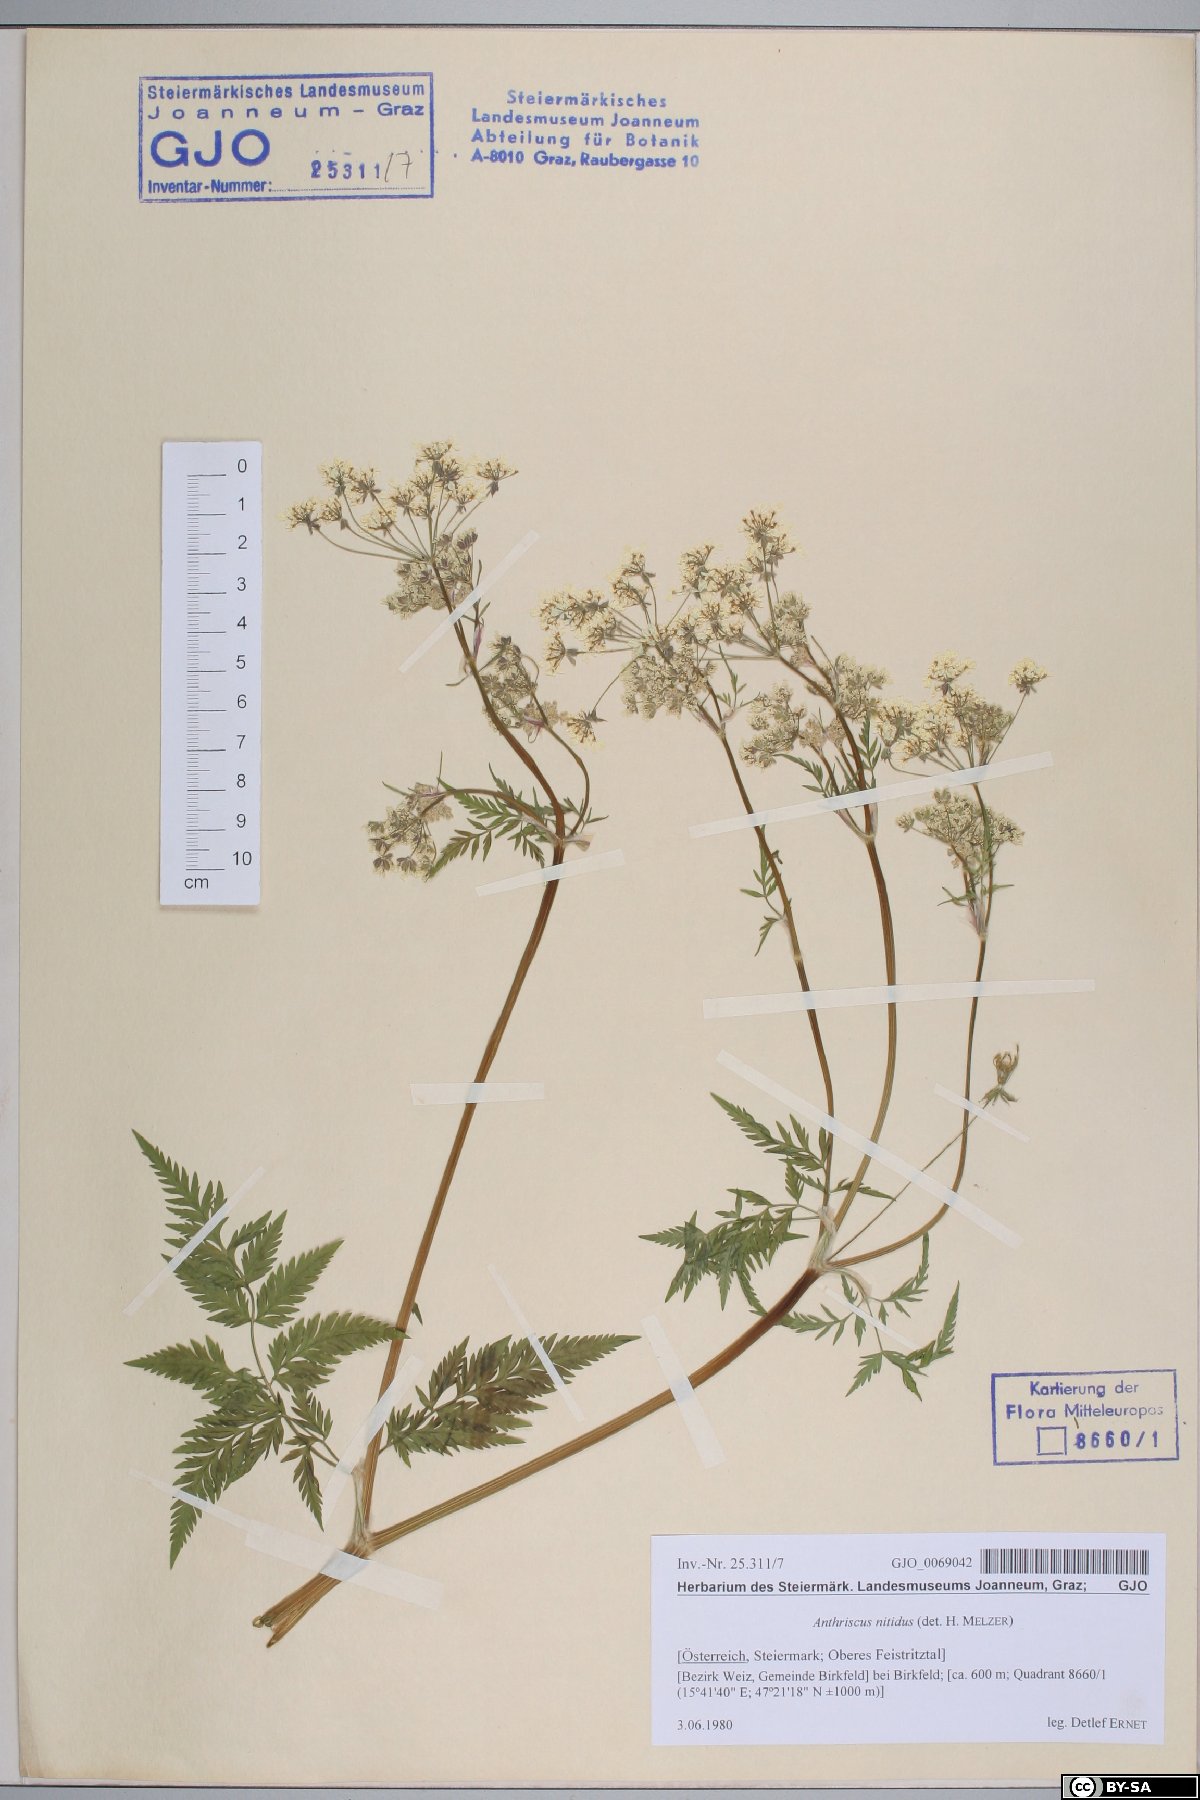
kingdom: Plantae
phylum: Tracheophyta
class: Magnoliopsida
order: Apiales
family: Apiaceae
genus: Anthriscus
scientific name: Anthriscus nitida
